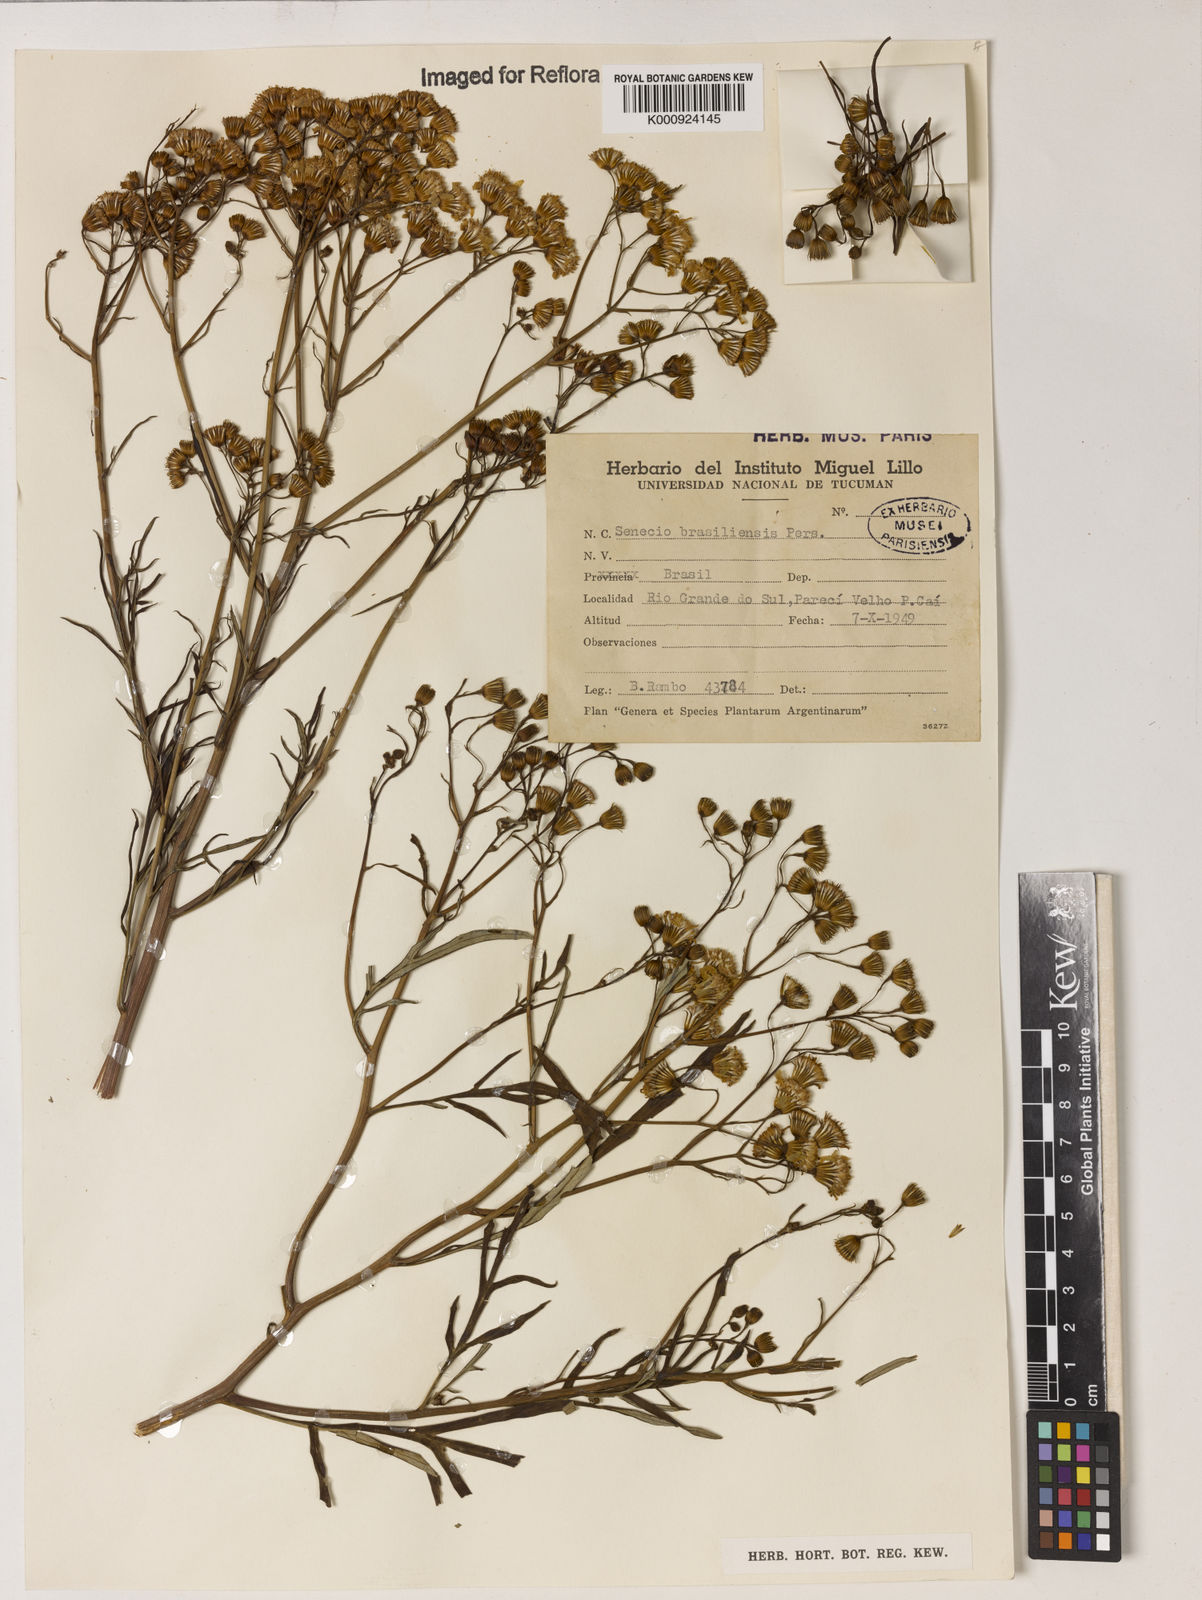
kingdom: Plantae
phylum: Tracheophyta
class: Magnoliopsida
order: Asterales
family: Asteraceae
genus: Senecio
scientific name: Senecio brasiliensis
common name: Hemp-leaf ragwort
